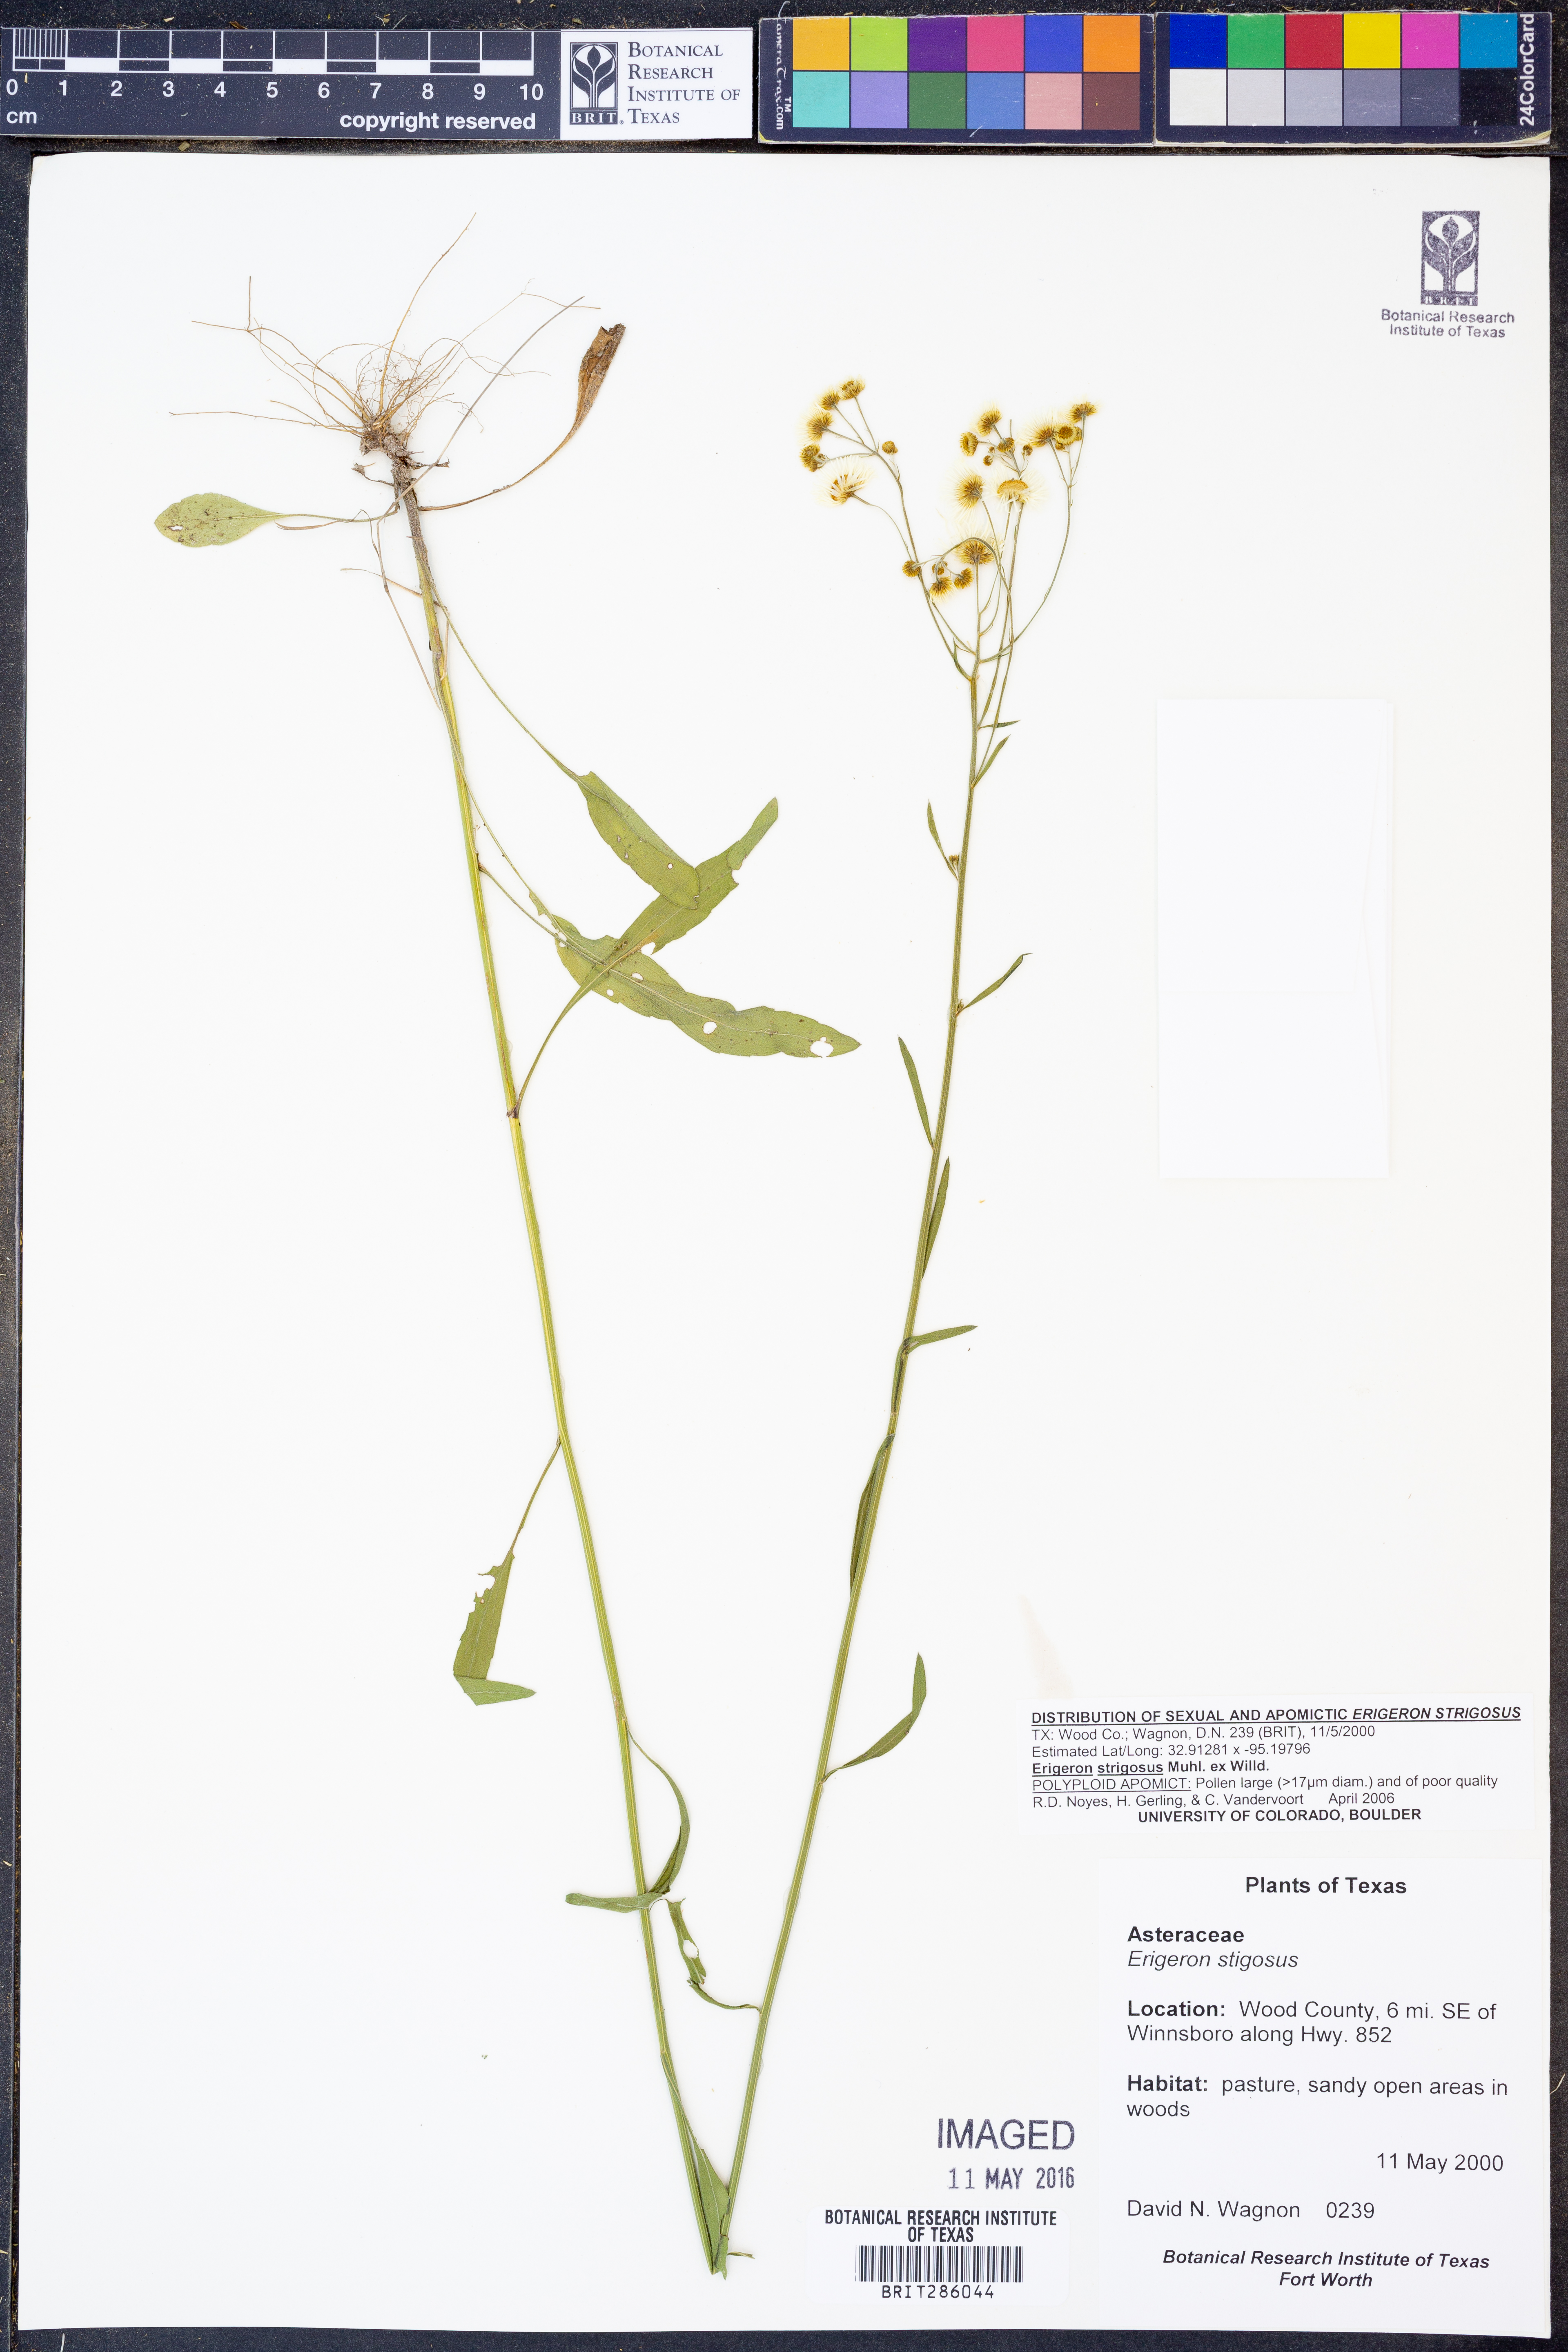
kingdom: Plantae
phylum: Tracheophyta
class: Magnoliopsida
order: Asterales
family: Asteraceae
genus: Erigeron
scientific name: Erigeron strigosus
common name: Common eastern fleabane
